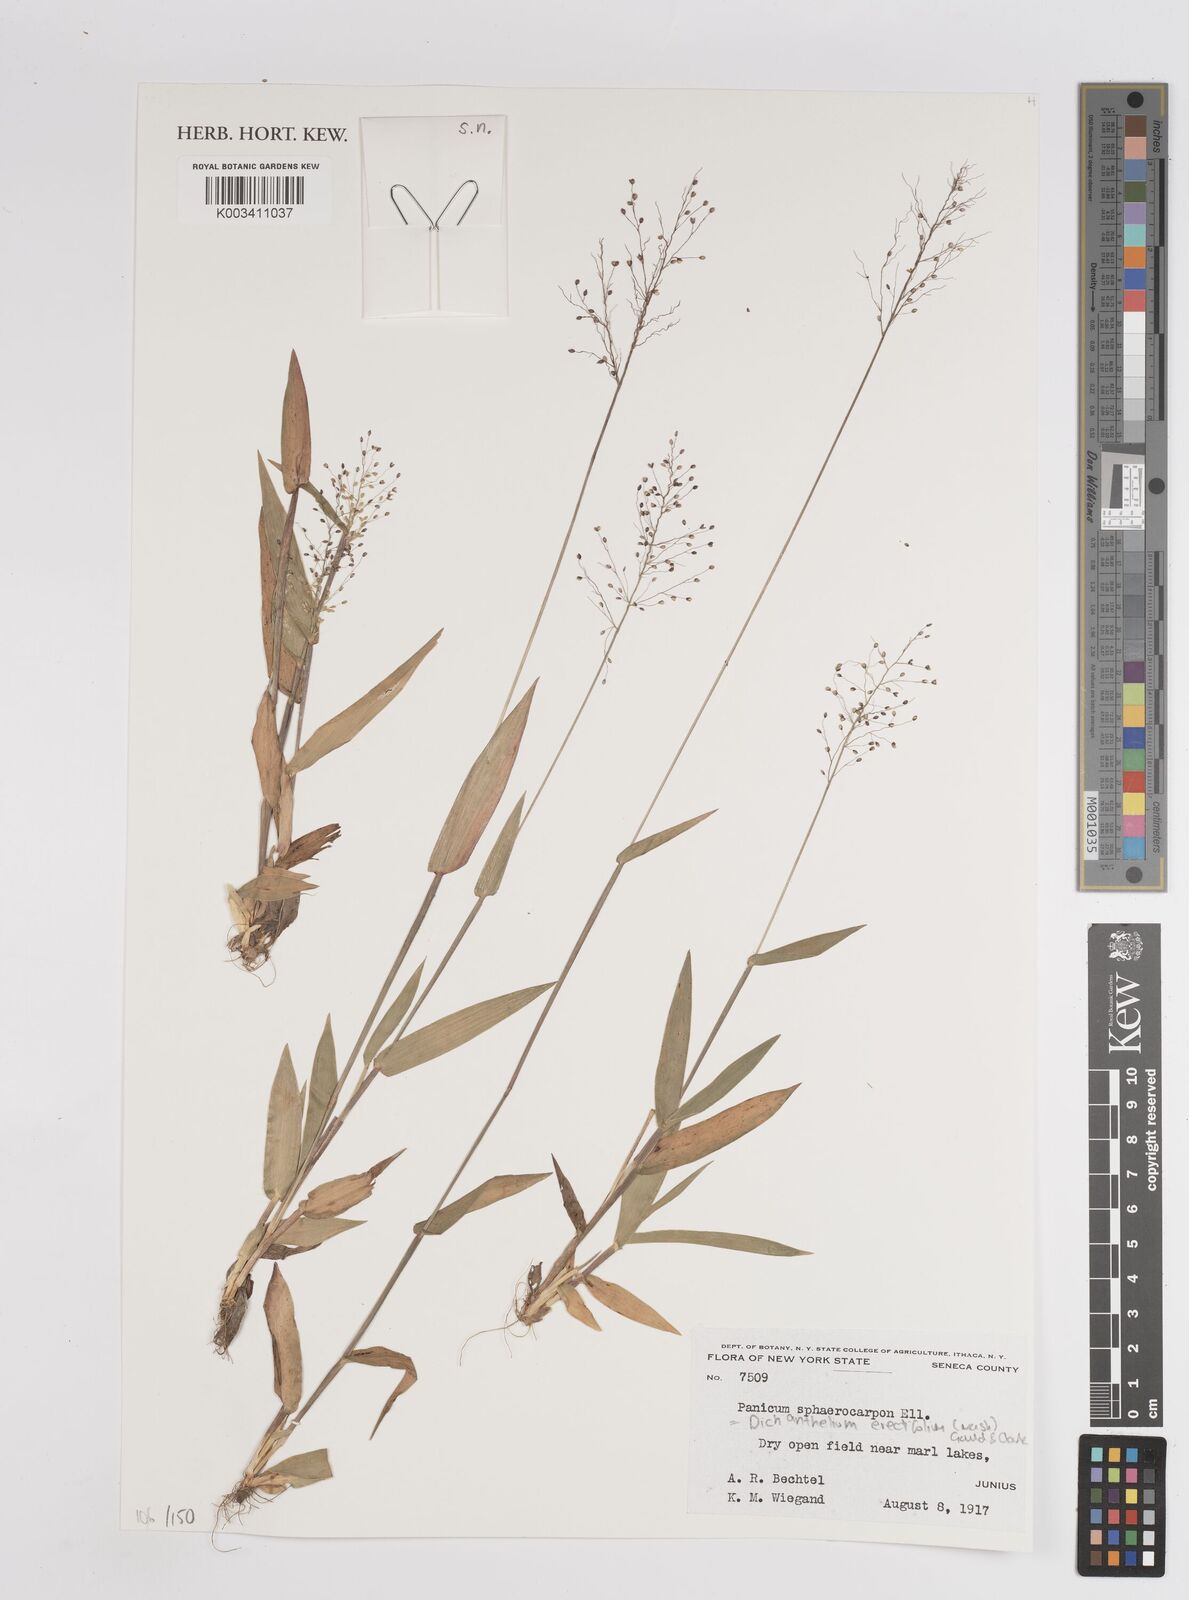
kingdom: Plantae
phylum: Tracheophyta
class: Liliopsida
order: Poales
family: Poaceae
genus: Dichanthelium
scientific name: Dichanthelium polyanthes
